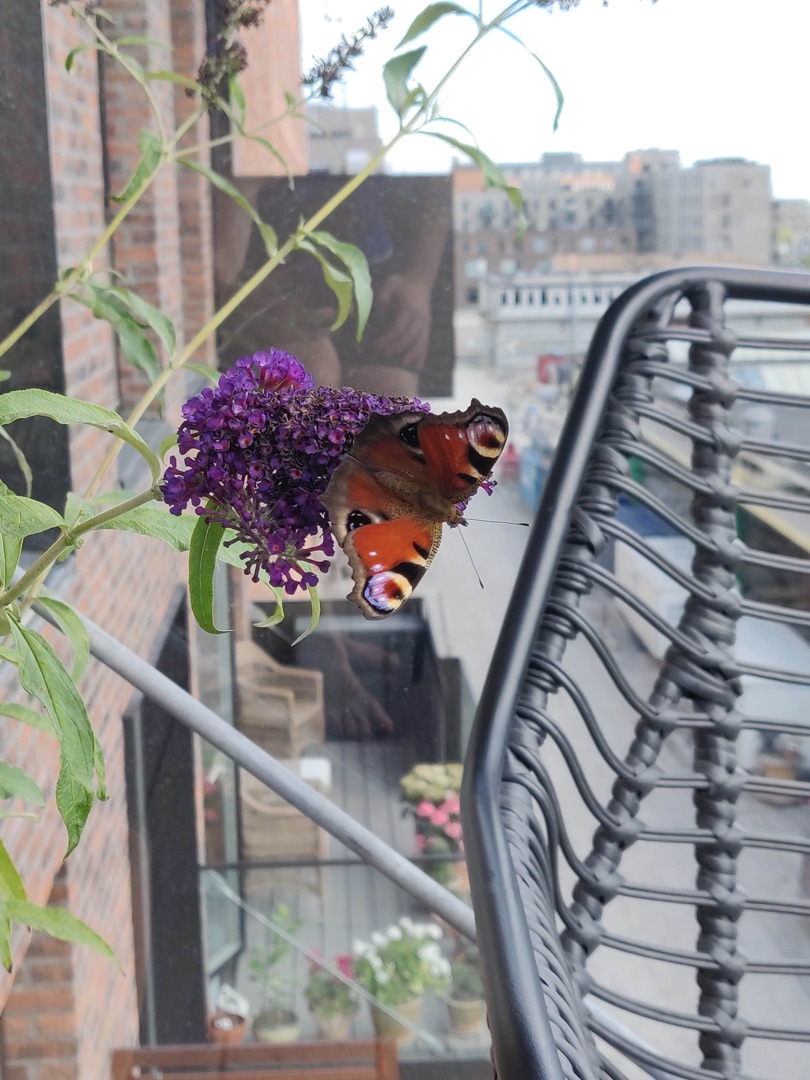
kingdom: Animalia
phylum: Arthropoda
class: Insecta
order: Lepidoptera
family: Nymphalidae
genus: Aglais
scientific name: Aglais io
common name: Dagpåfugleøje
